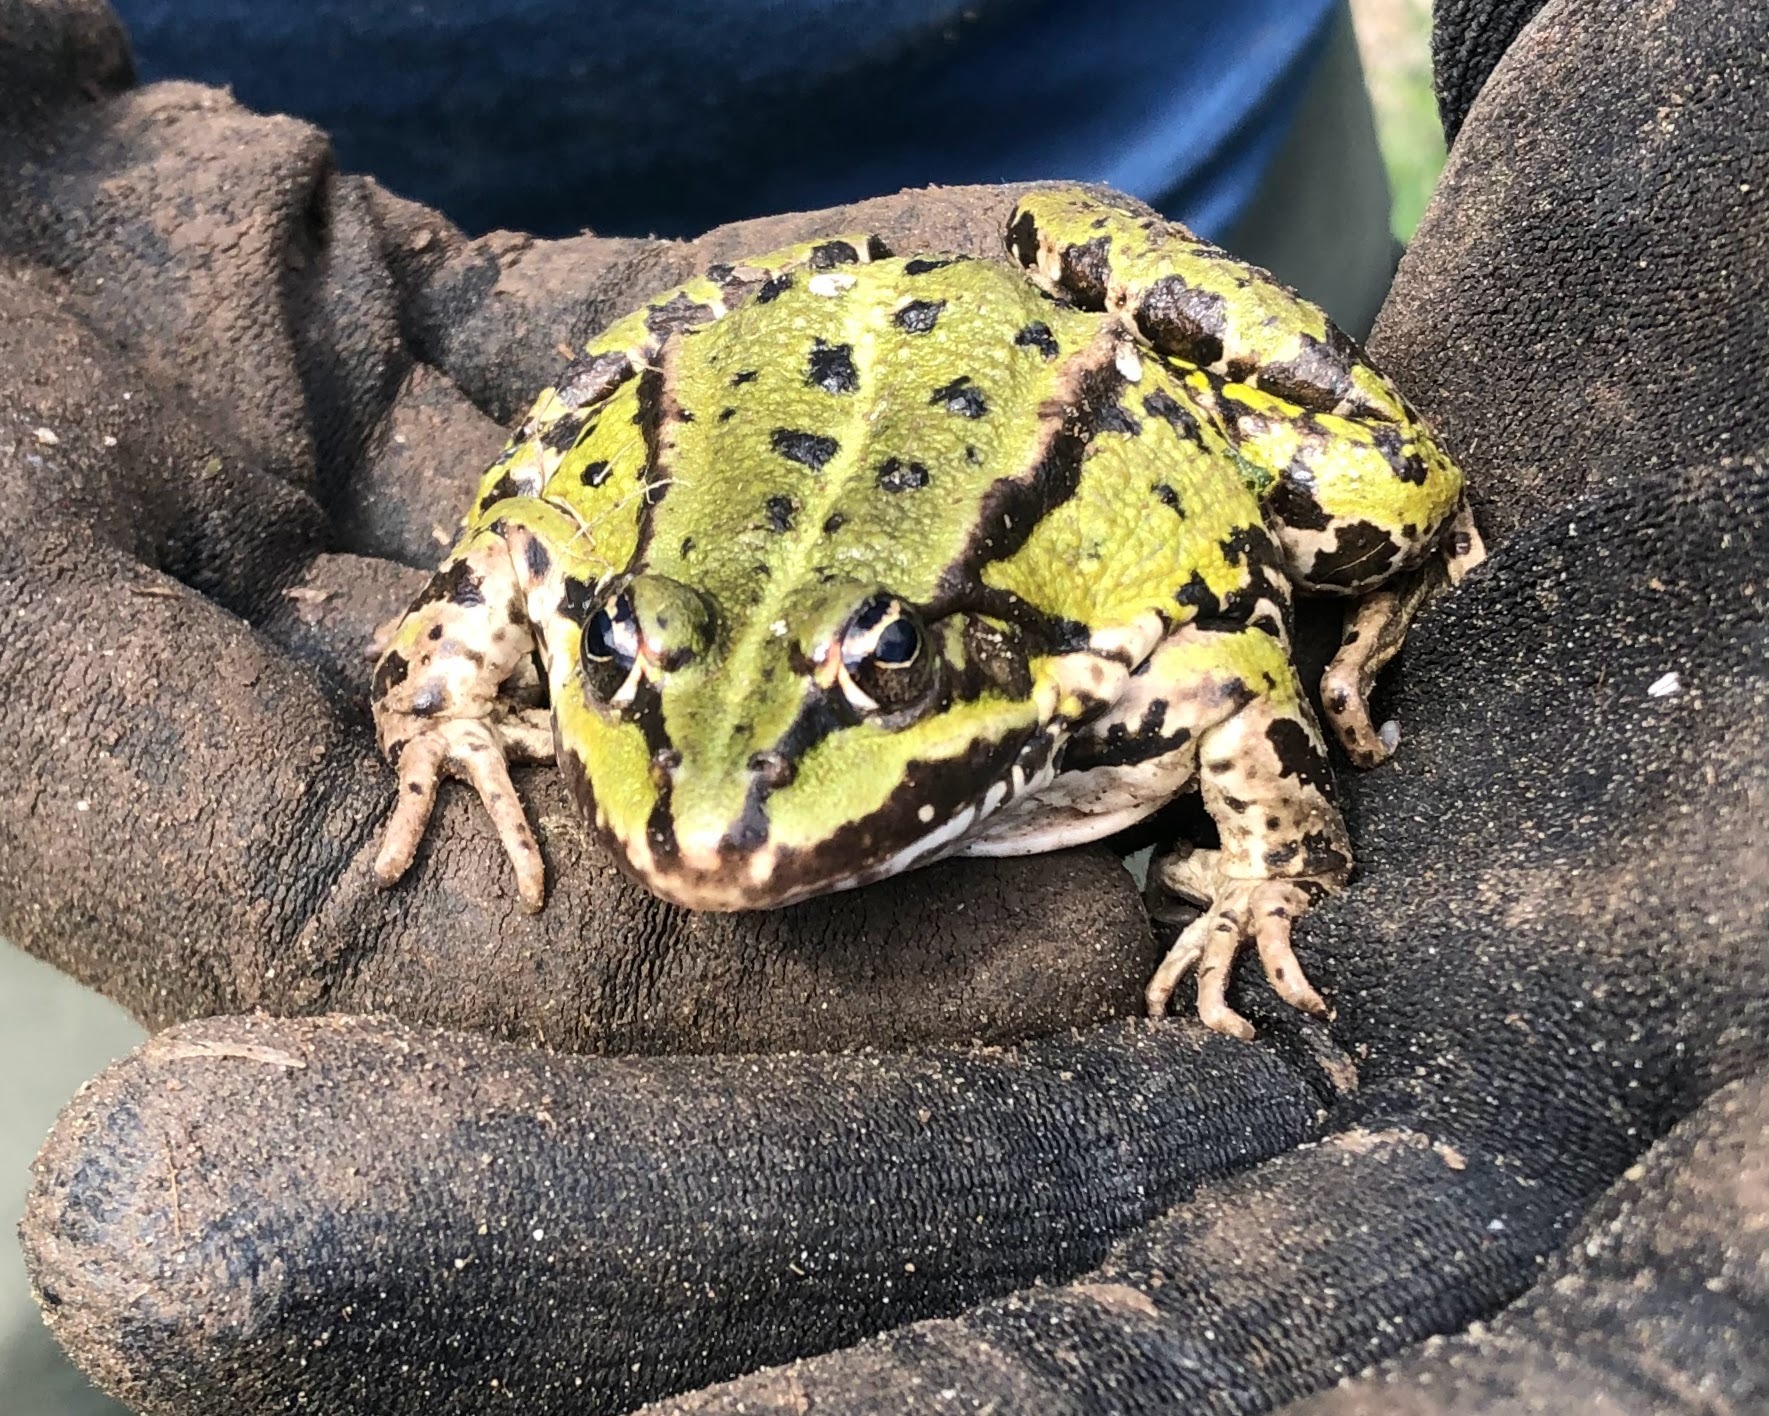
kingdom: Animalia
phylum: Chordata
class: Amphibia
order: Anura
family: Ranidae
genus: Pelophylax
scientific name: Pelophylax lessonae
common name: Grøn frø
